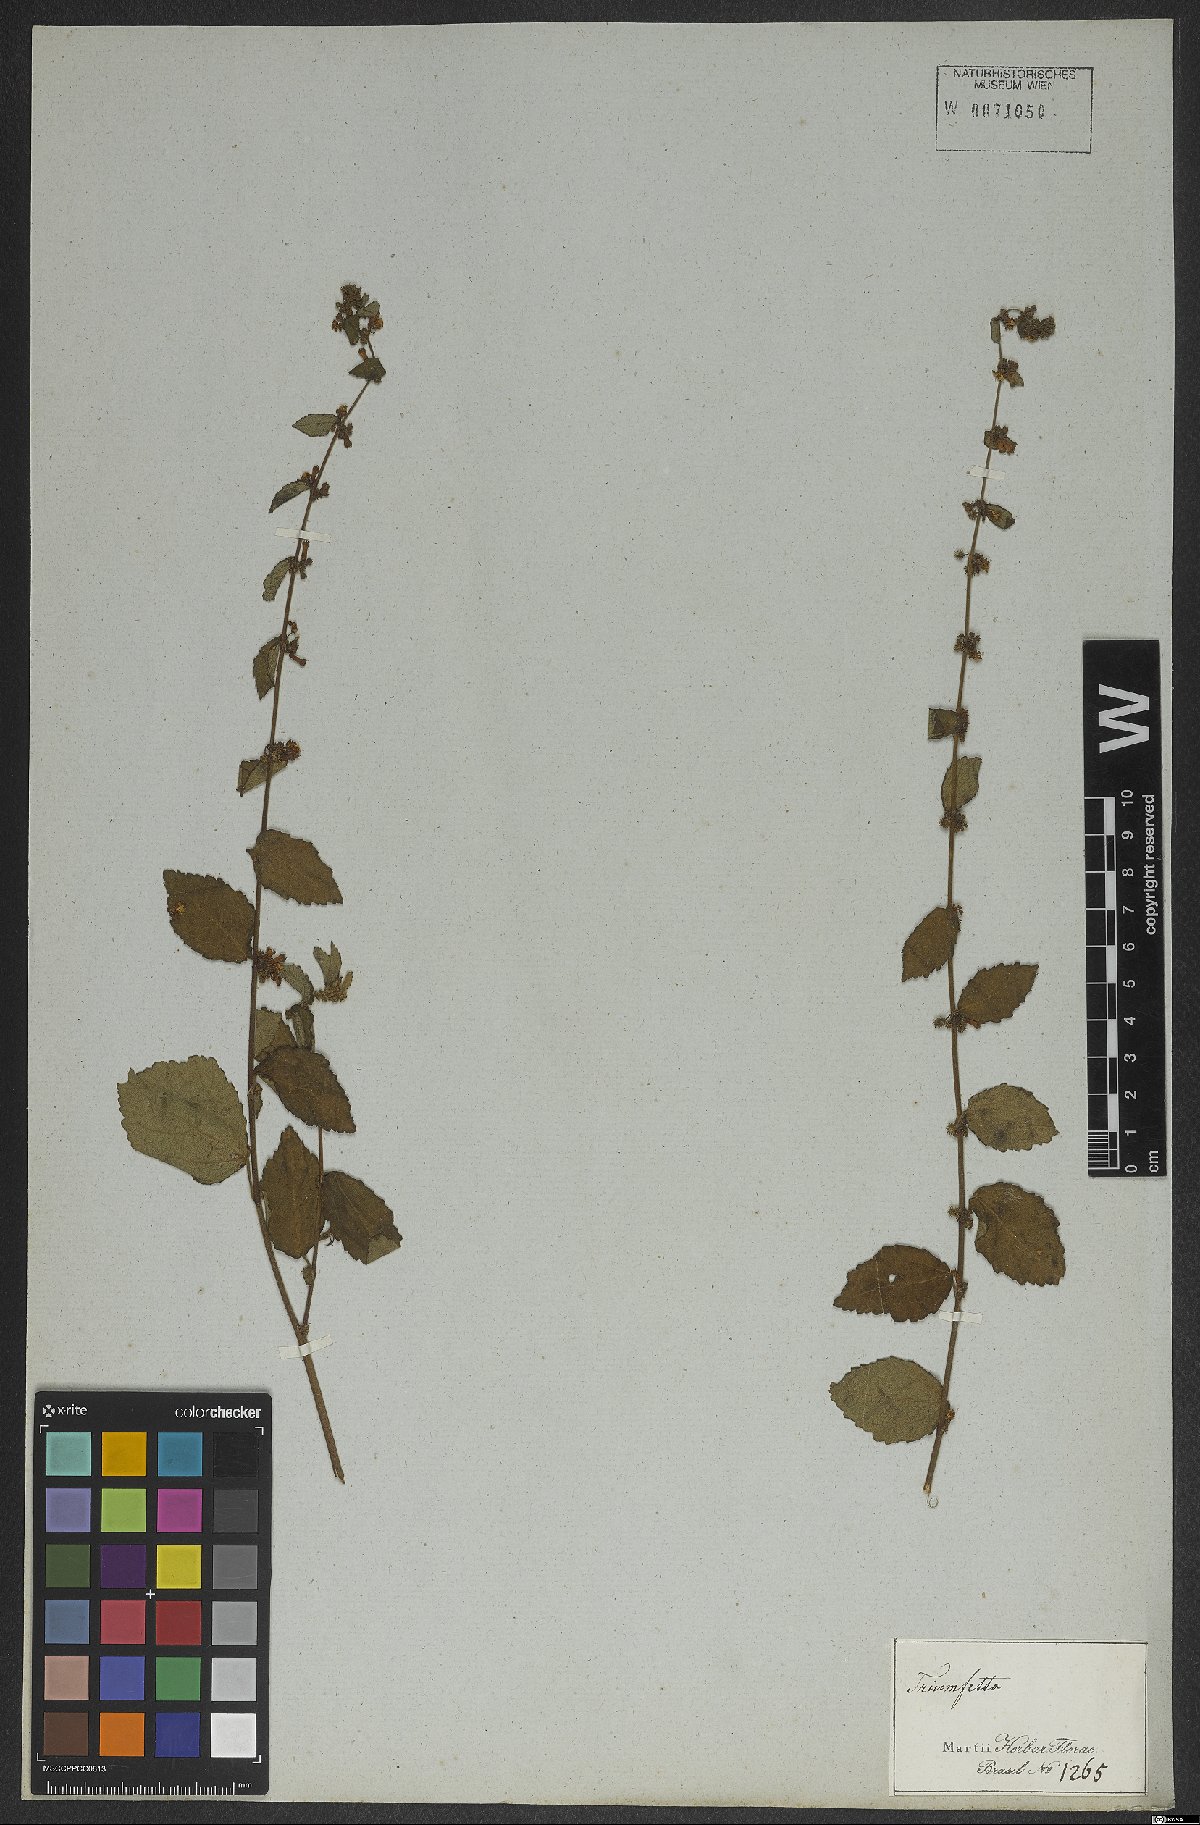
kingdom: Plantae
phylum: Tracheophyta
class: Magnoliopsida
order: Malvales
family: Malvaceae
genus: Triumfetta
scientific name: Triumfetta
